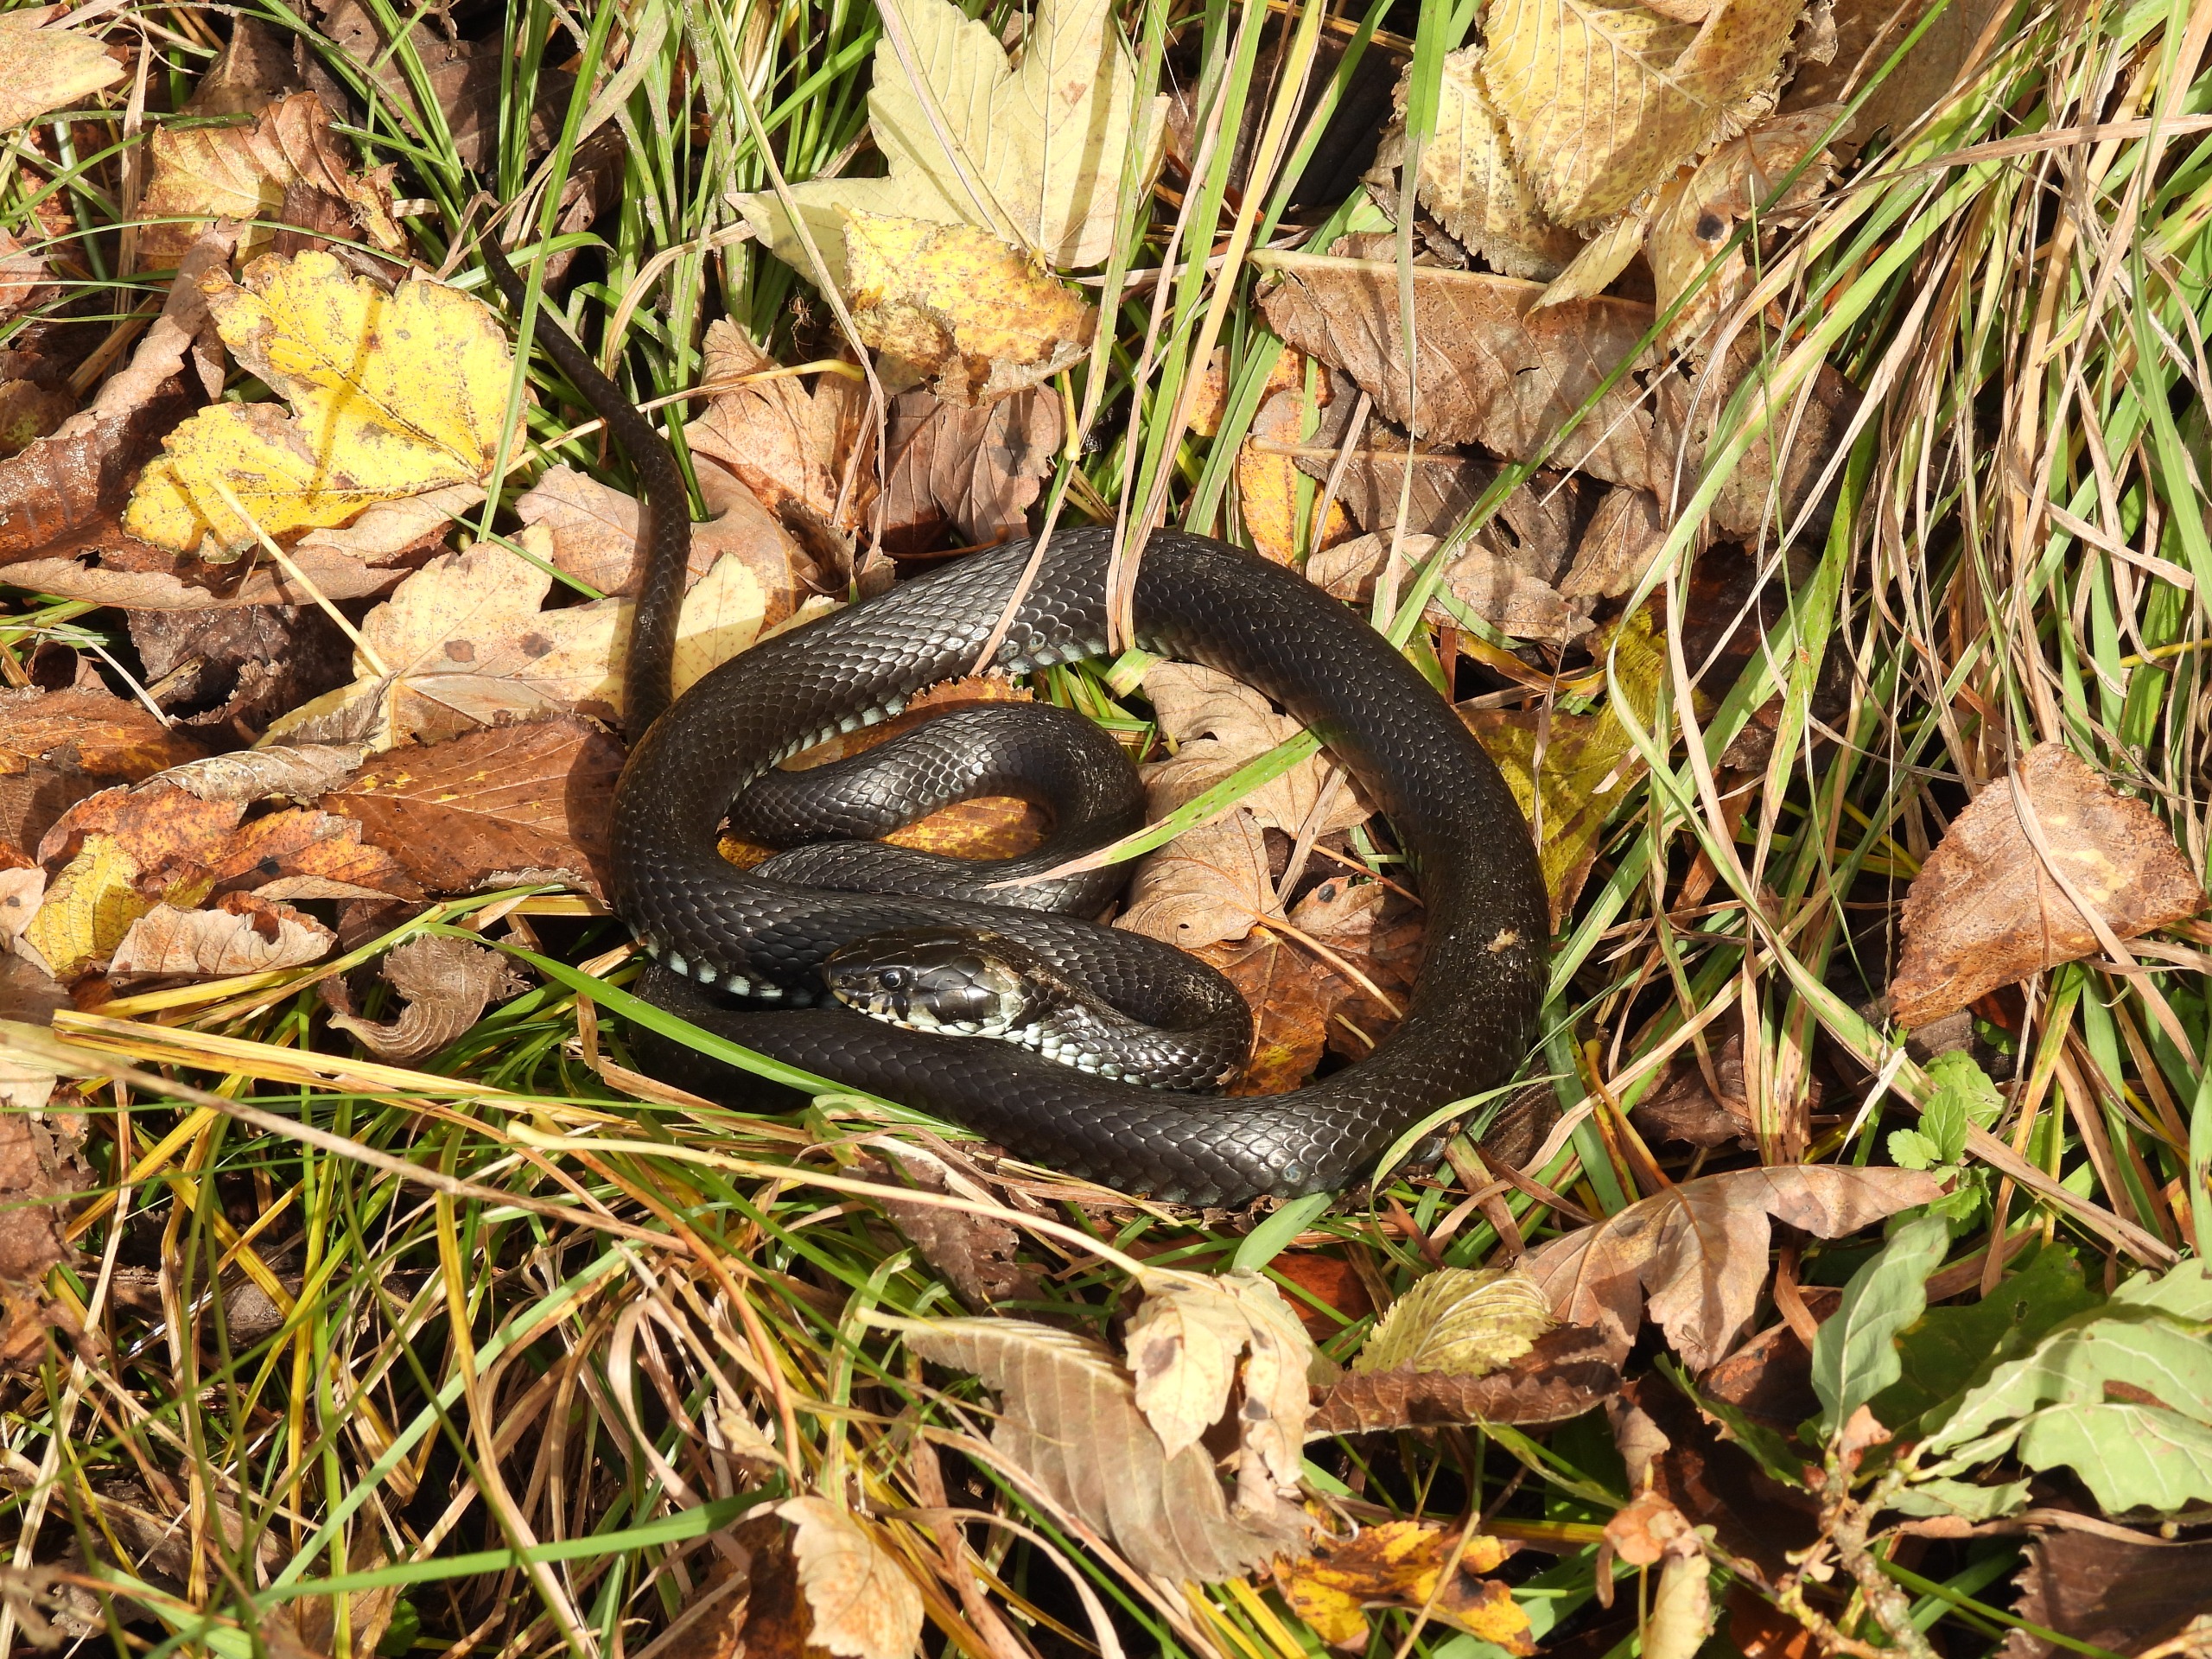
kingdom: Animalia
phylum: Chordata
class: Squamata
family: Colubridae
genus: Natrix
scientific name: Natrix natrix
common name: Snog
